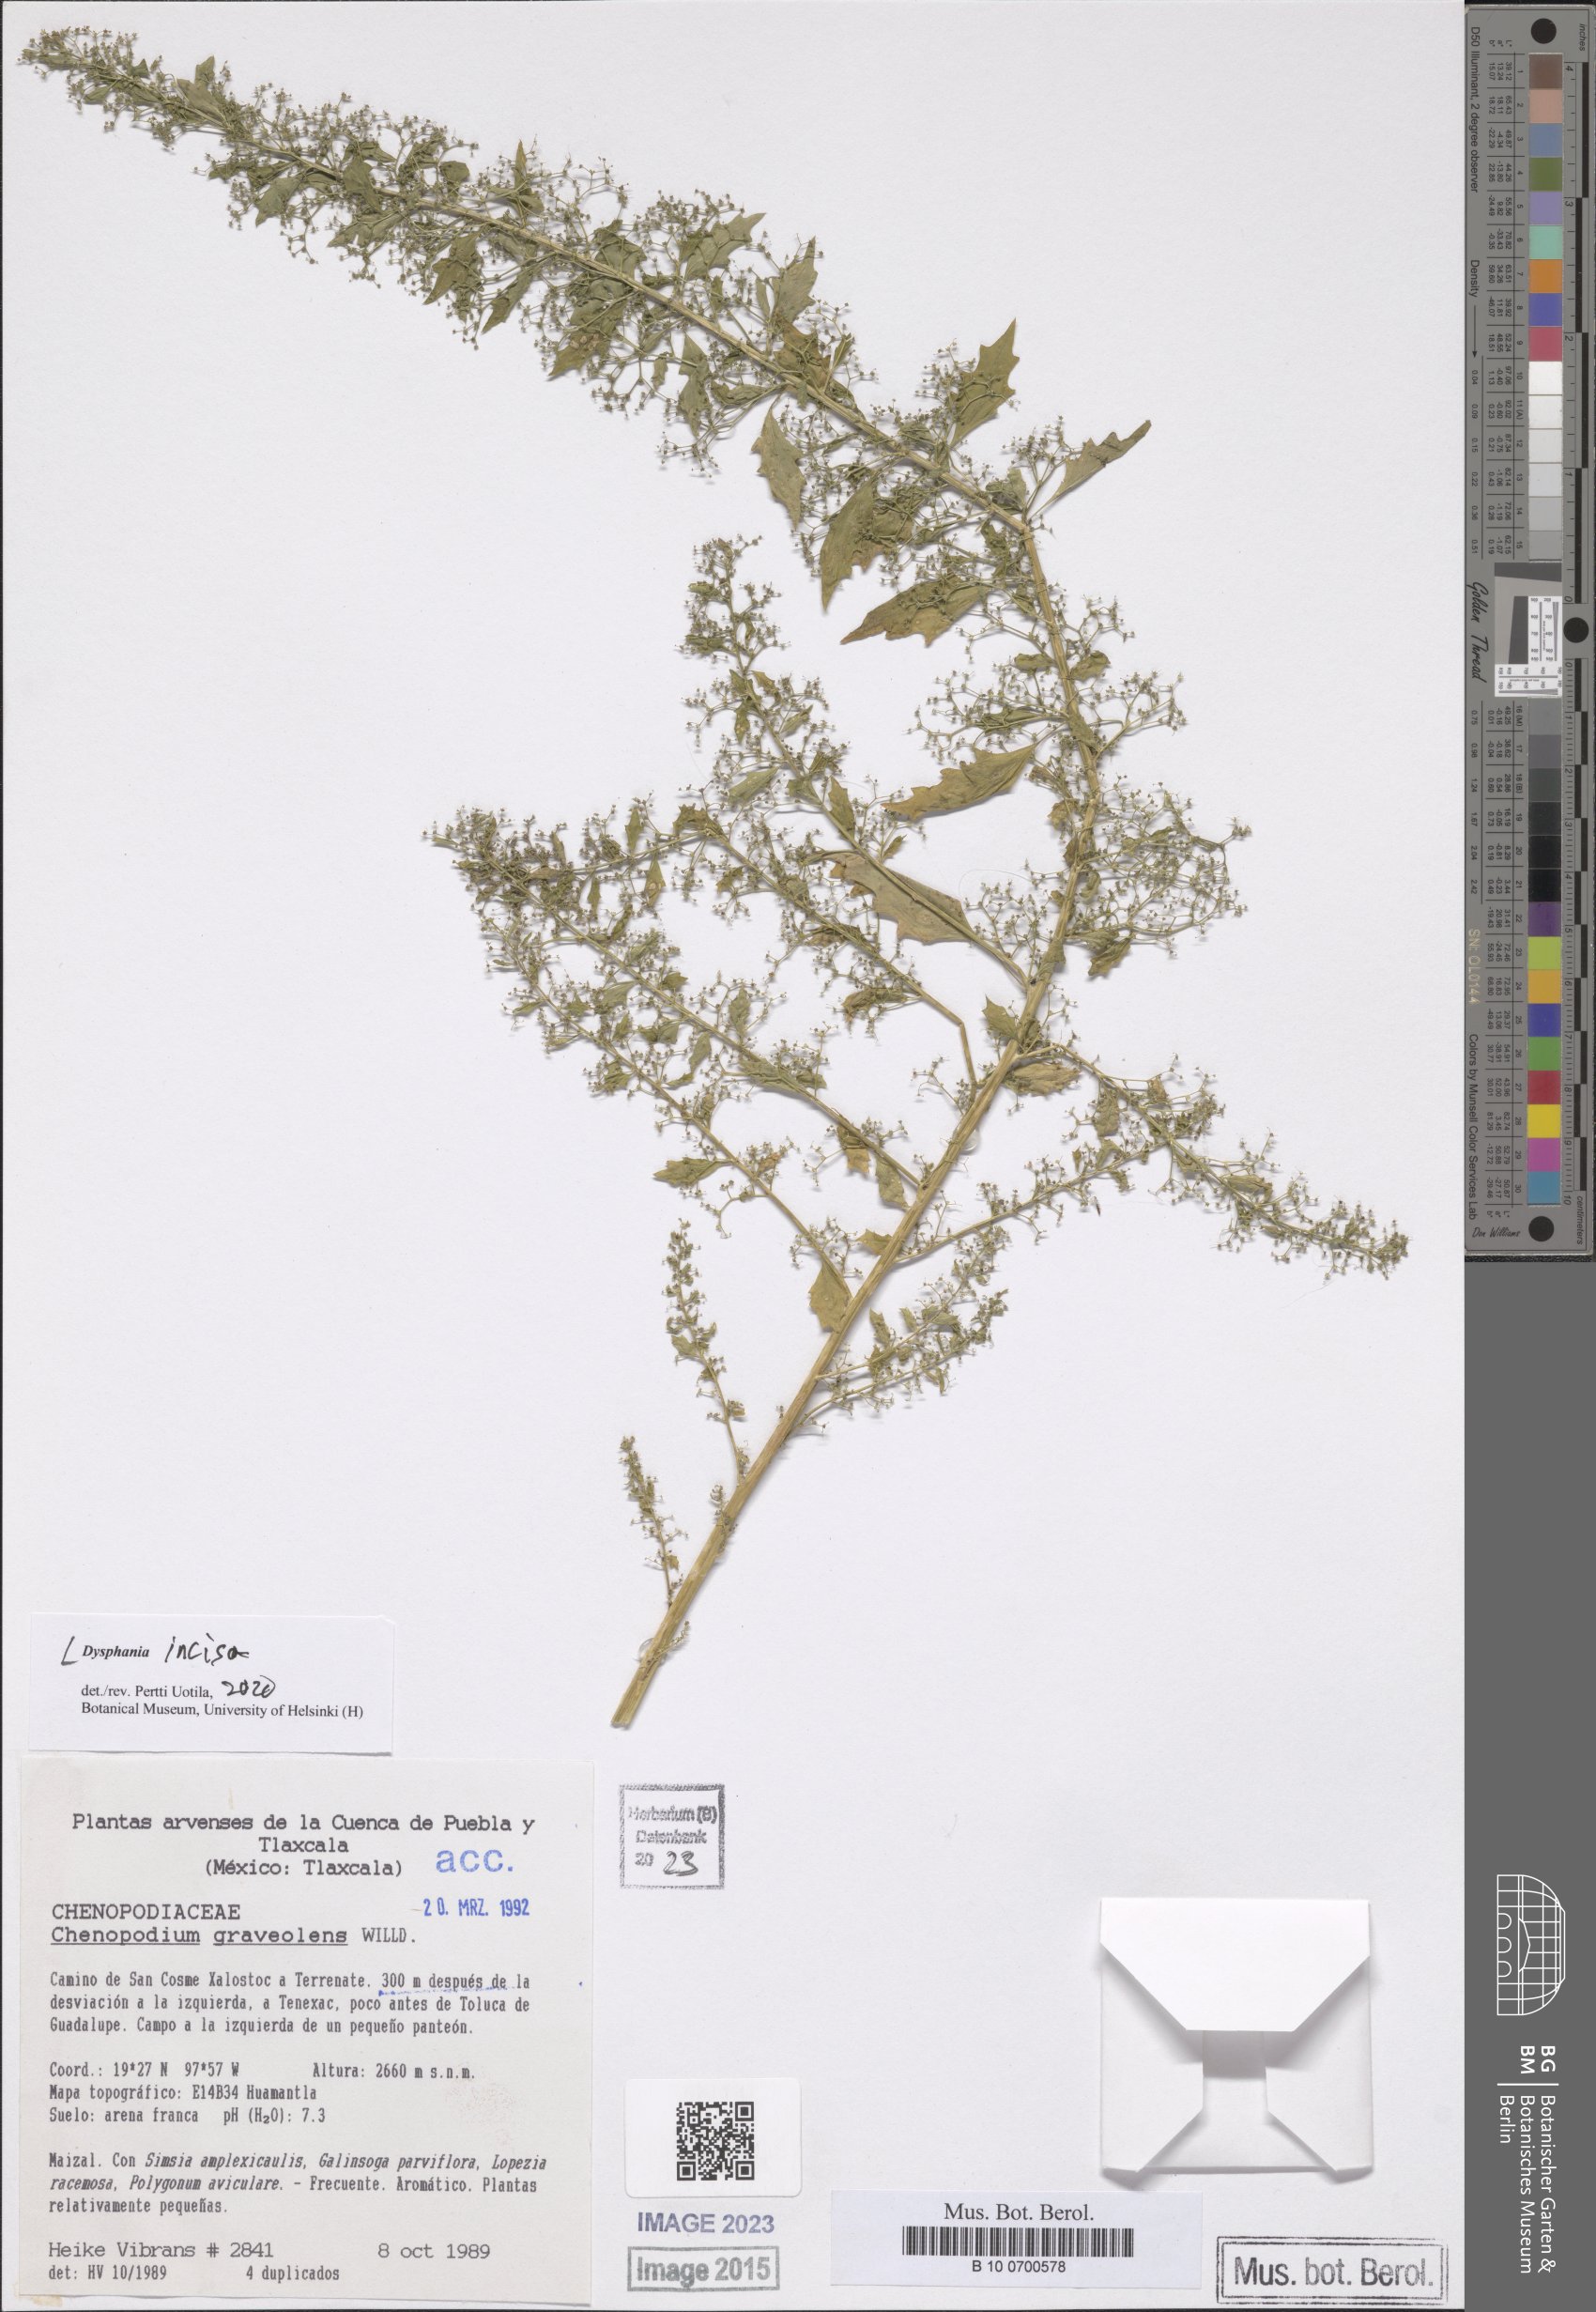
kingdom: Plantae
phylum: Tracheophyta
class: Magnoliopsida
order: Caryophyllales
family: Amaranthaceae
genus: Dysphania
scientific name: Dysphania incisa
